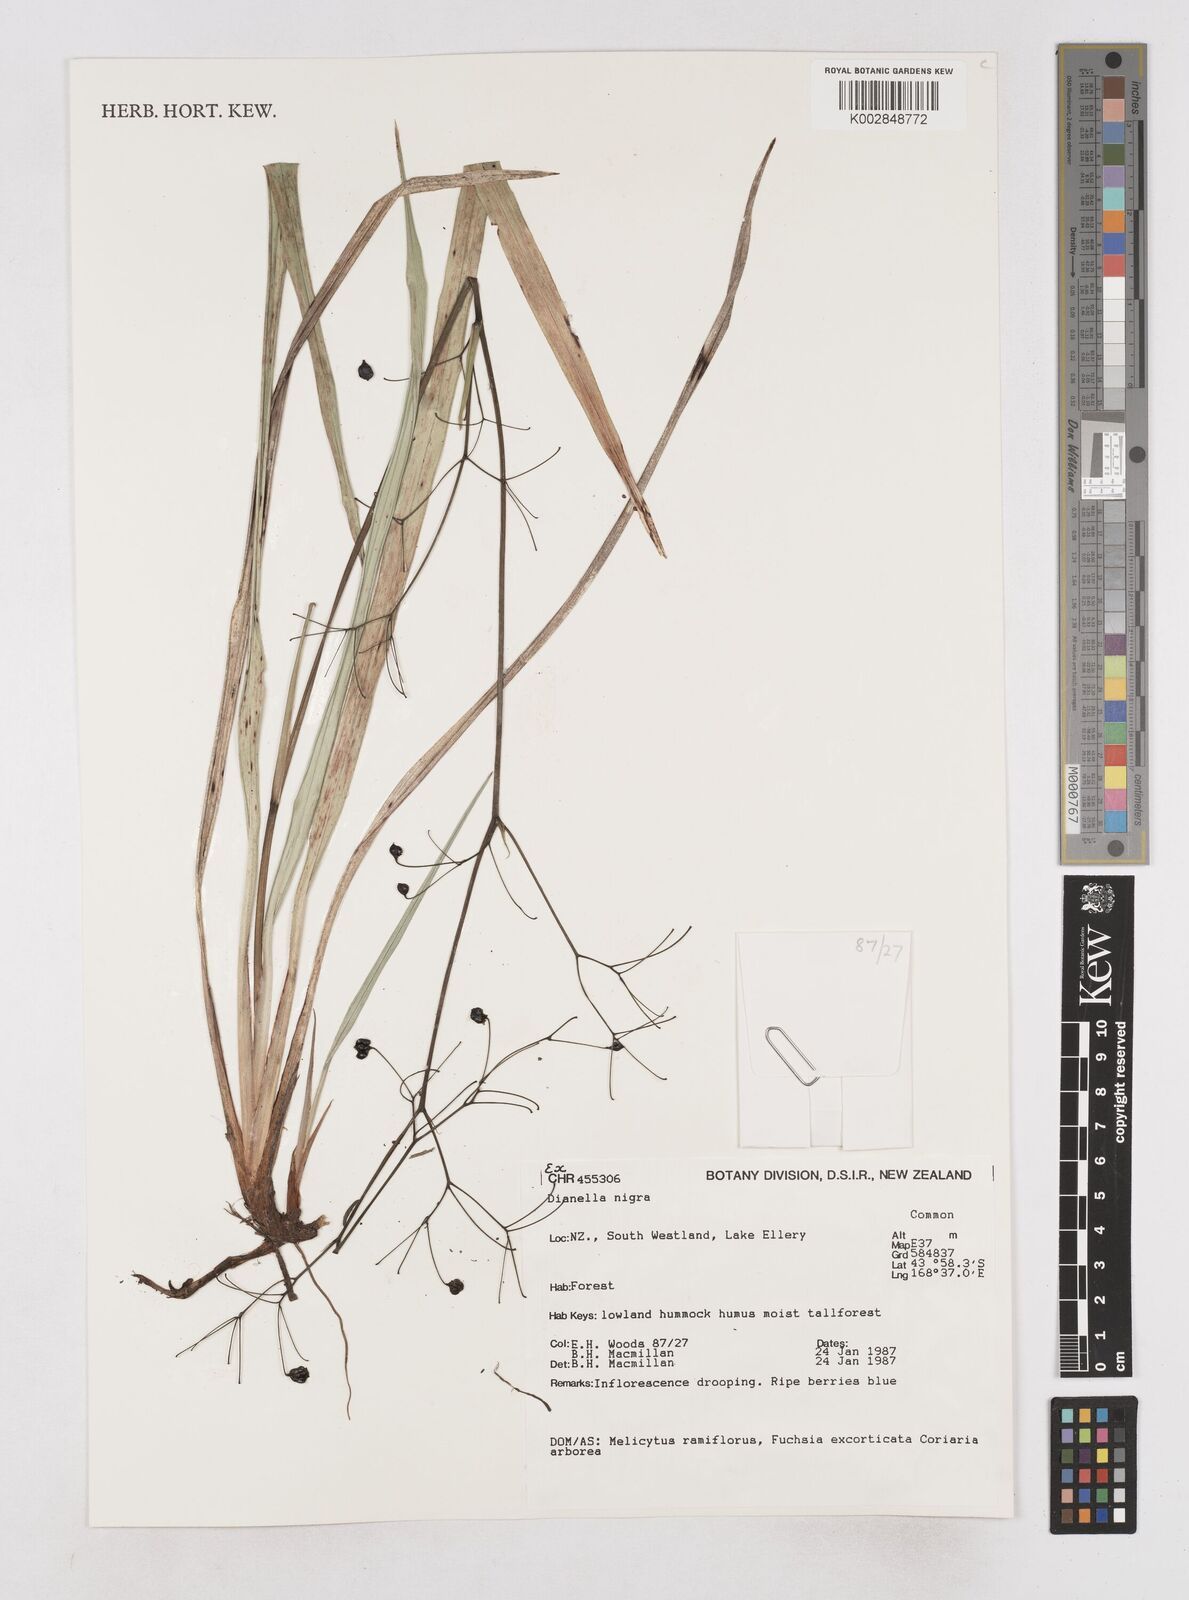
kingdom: Plantae
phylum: Tracheophyta
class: Liliopsida
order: Asparagales
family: Asphodelaceae
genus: Dianella
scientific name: Dianella nigra
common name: New zealand-blueberry
